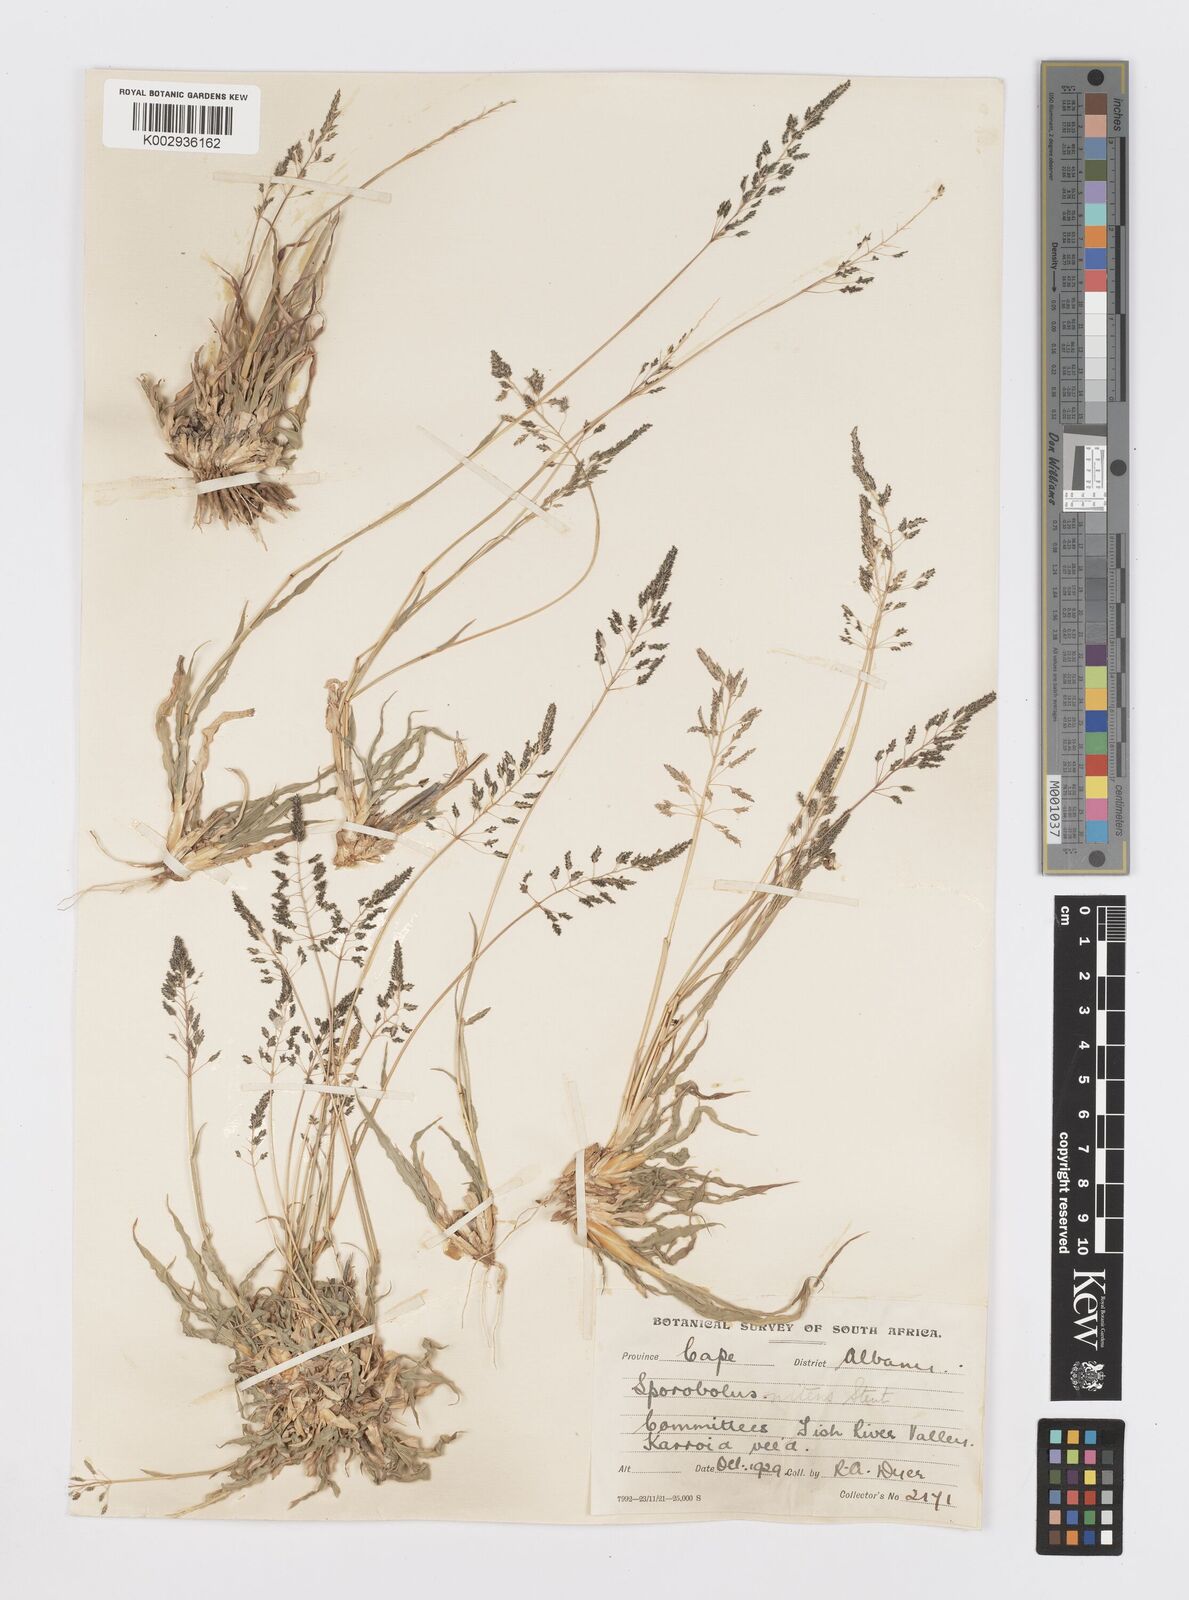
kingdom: Plantae
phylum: Tracheophyta
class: Liliopsida
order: Poales
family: Poaceae
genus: Sporobolus
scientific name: Sporobolus nitens
